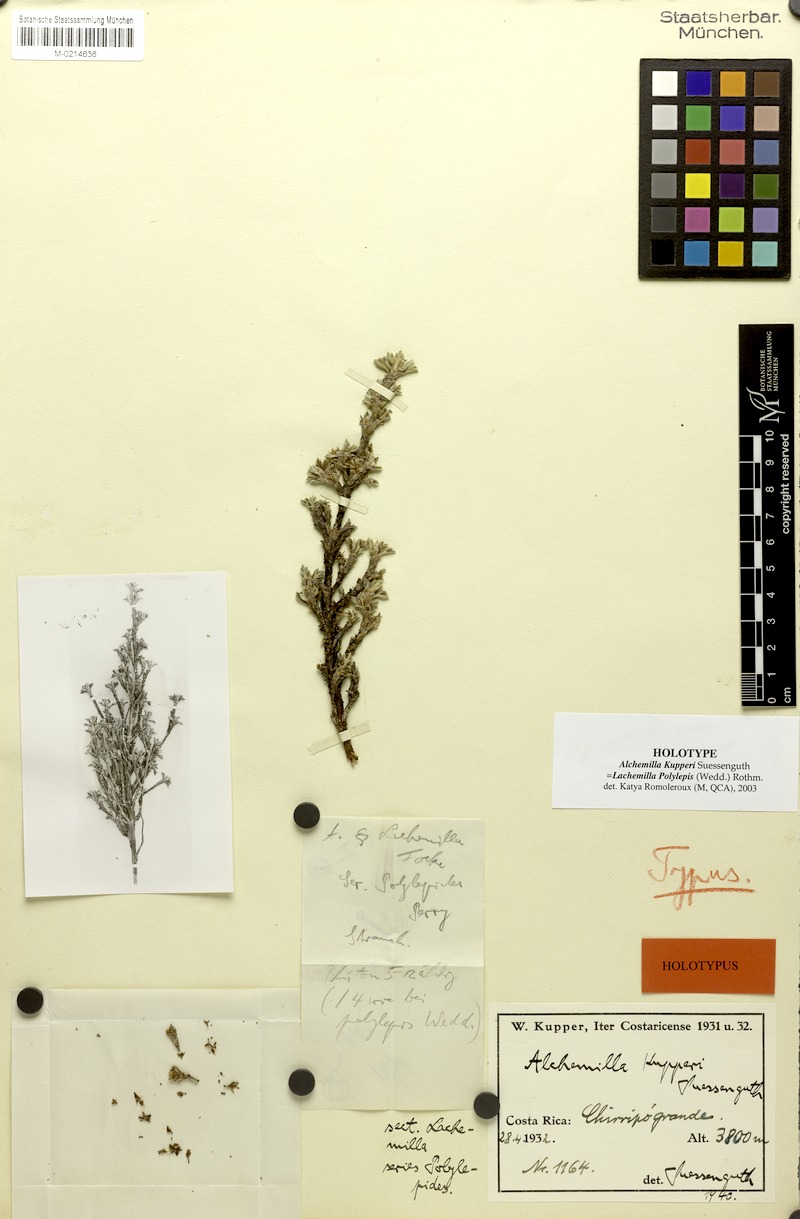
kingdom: Plantae
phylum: Tracheophyta
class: Magnoliopsida
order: Rosales
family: Rosaceae
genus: Lachemilla
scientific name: Lachemilla polylepis
